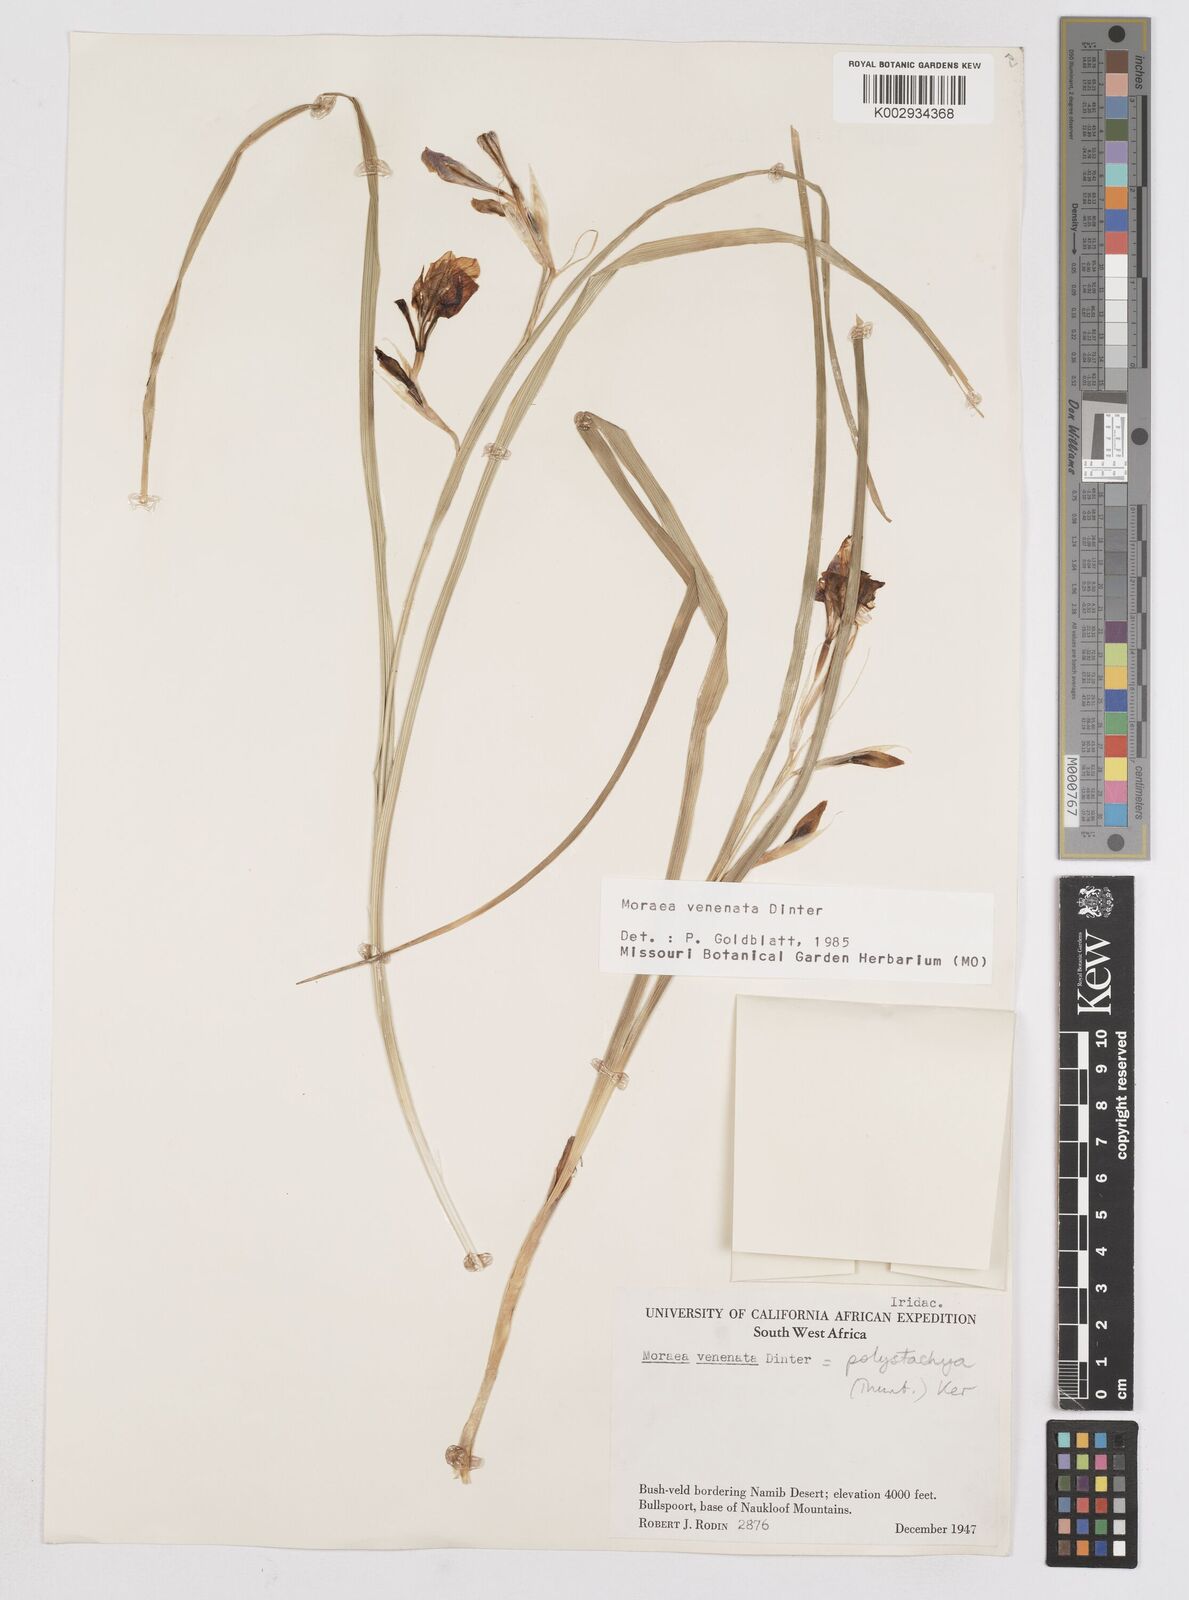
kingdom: Plantae
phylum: Tracheophyta
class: Liliopsida
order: Asparagales
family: Iridaceae
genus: Moraea
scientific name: Moraea venenata
